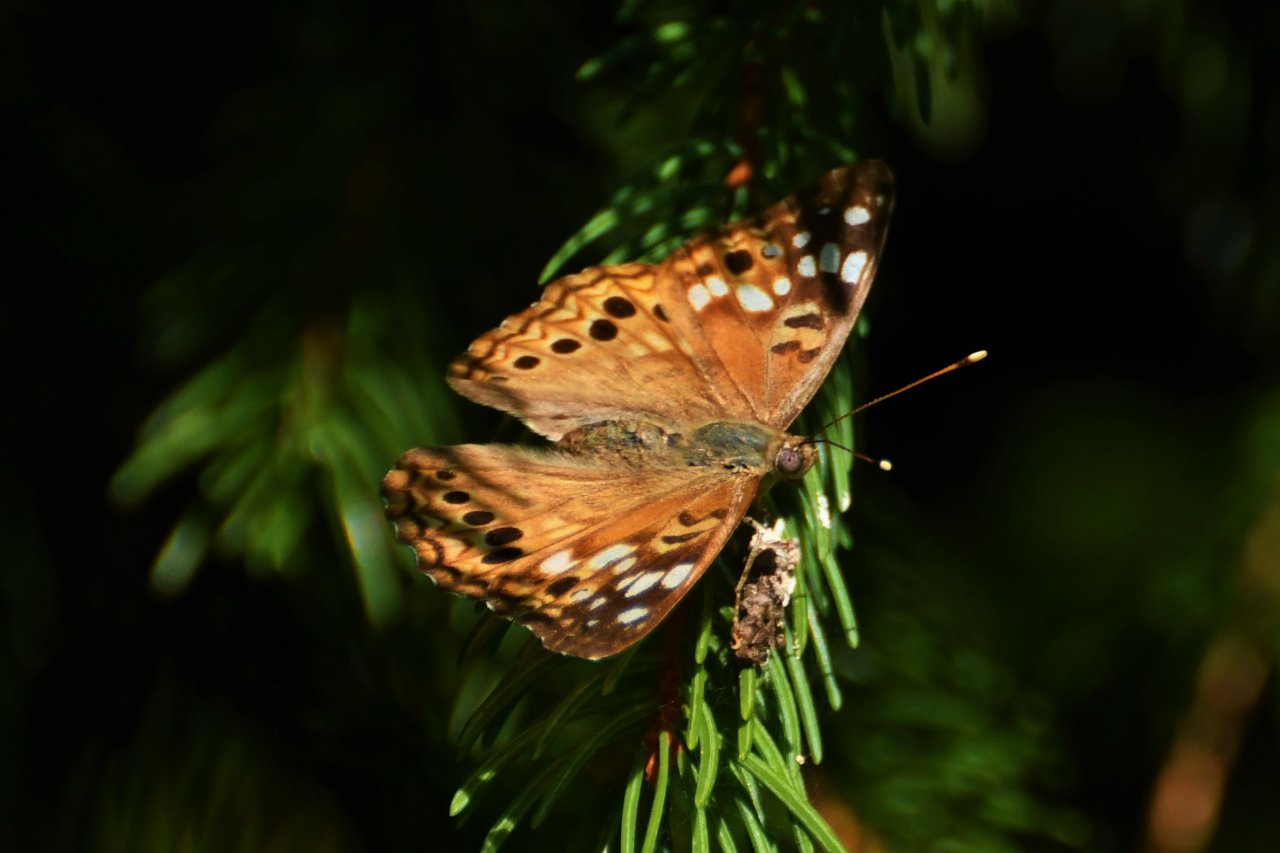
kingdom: Animalia
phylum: Arthropoda
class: Insecta
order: Lepidoptera
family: Nymphalidae
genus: Asterocampa
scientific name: Asterocampa celtis
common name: Hackberry Emperor
